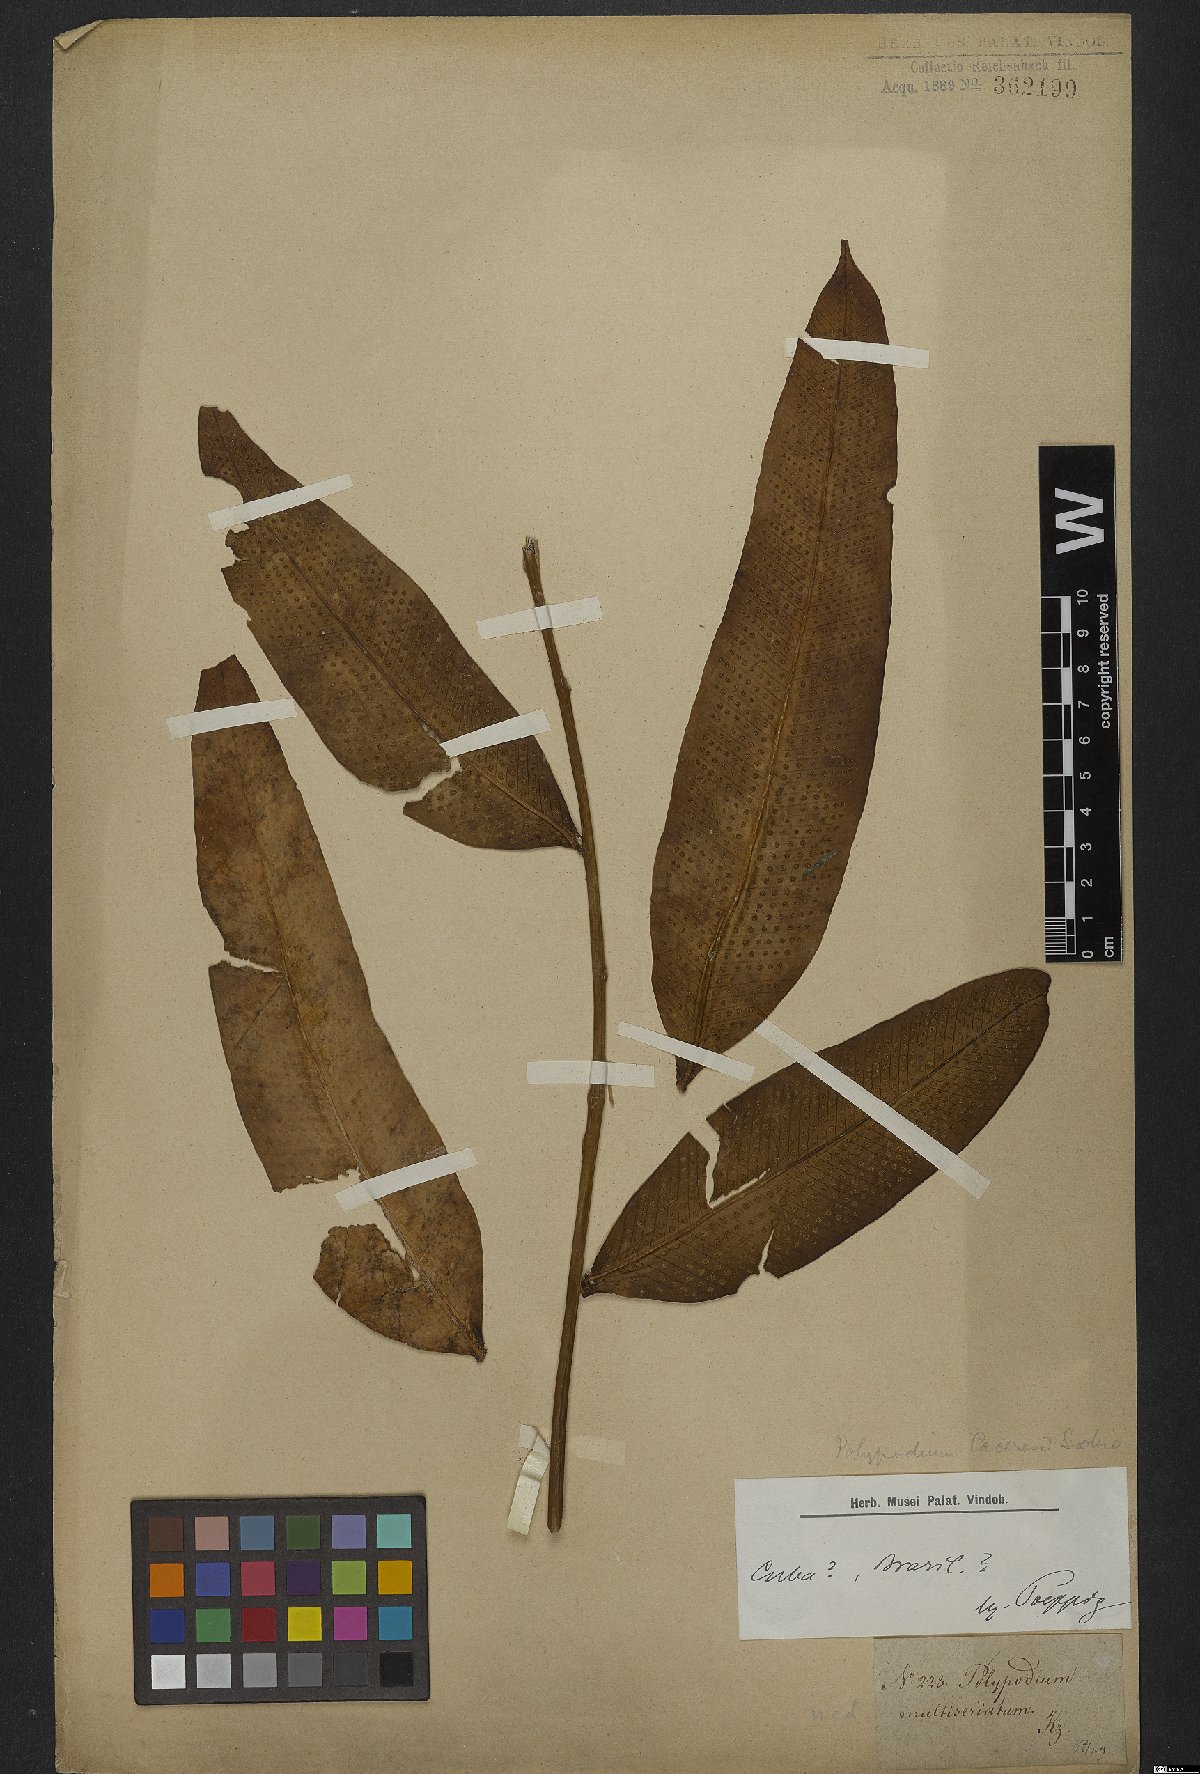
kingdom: Plantae
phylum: Tracheophyta
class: Polypodiopsida
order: Polypodiales
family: Polypodiaceae
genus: Serpocaulon
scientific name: Serpocaulon articulatum
